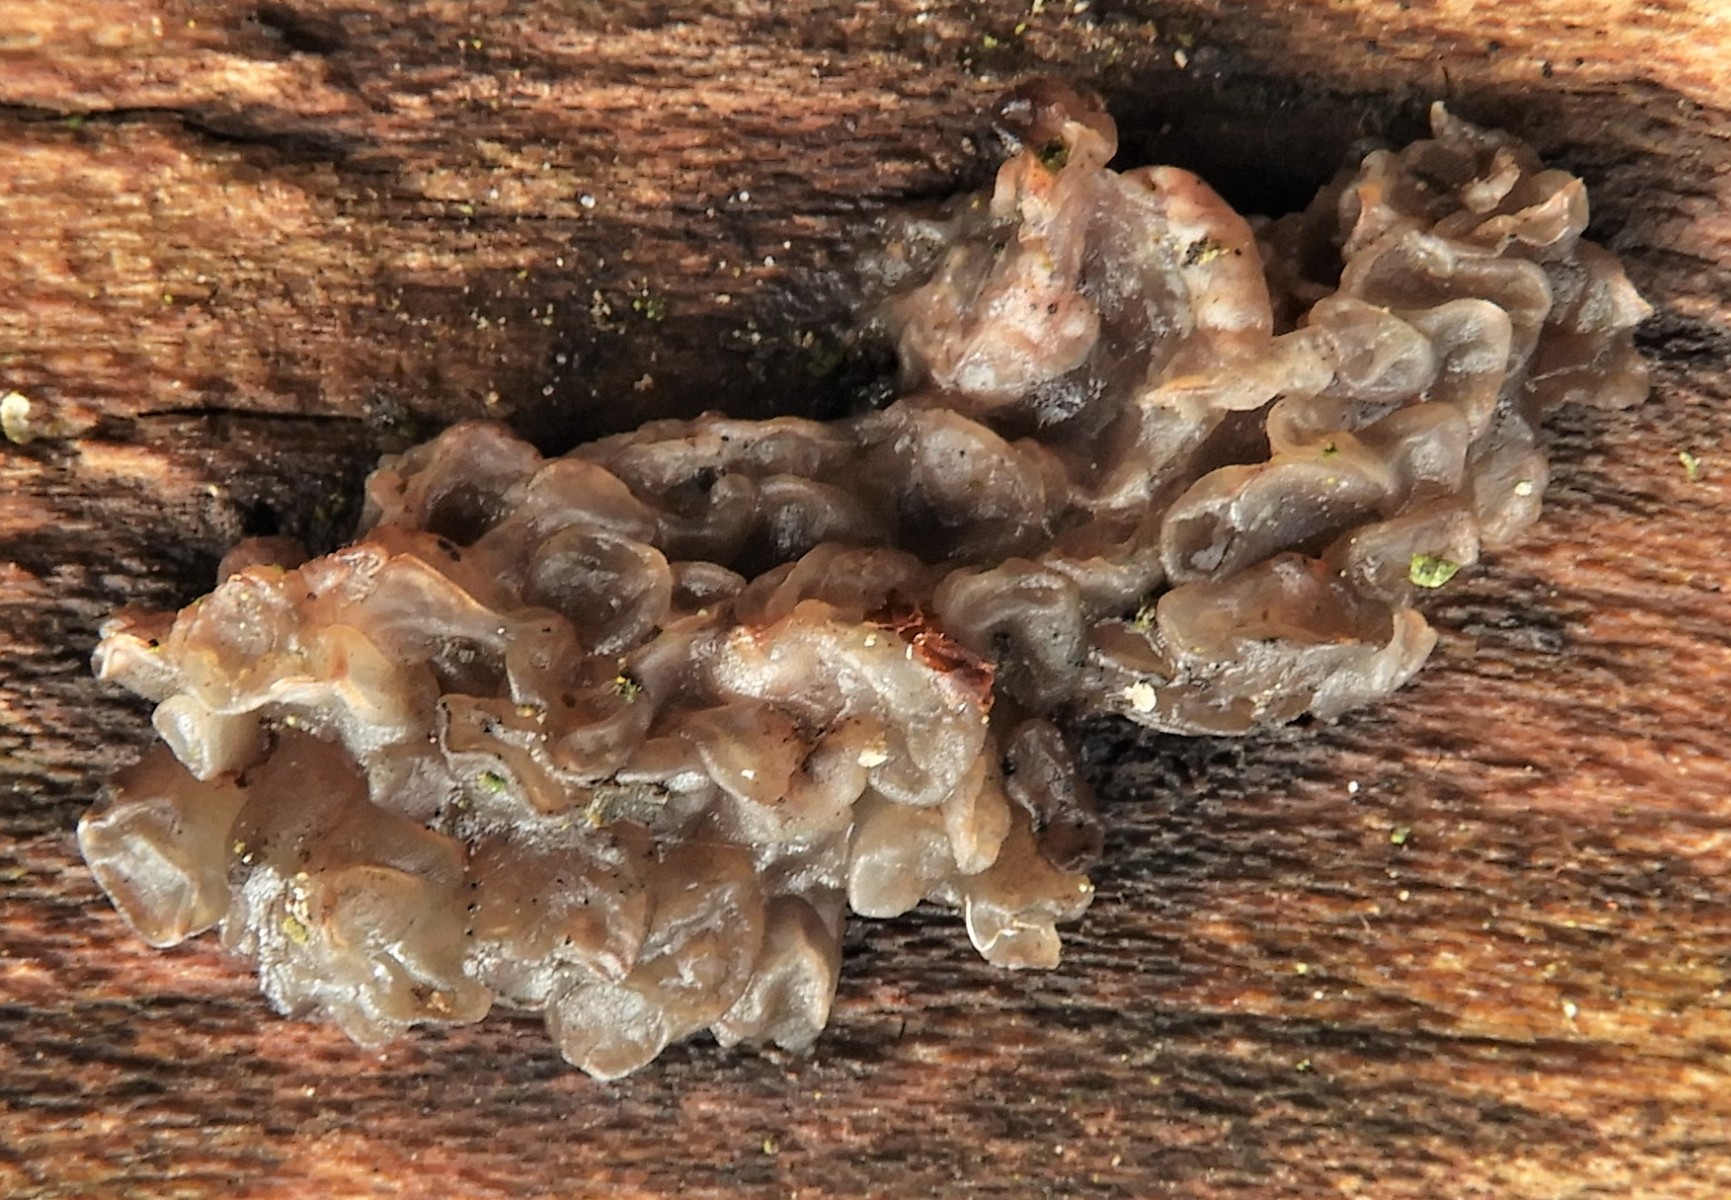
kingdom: Fungi
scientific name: Fungi
